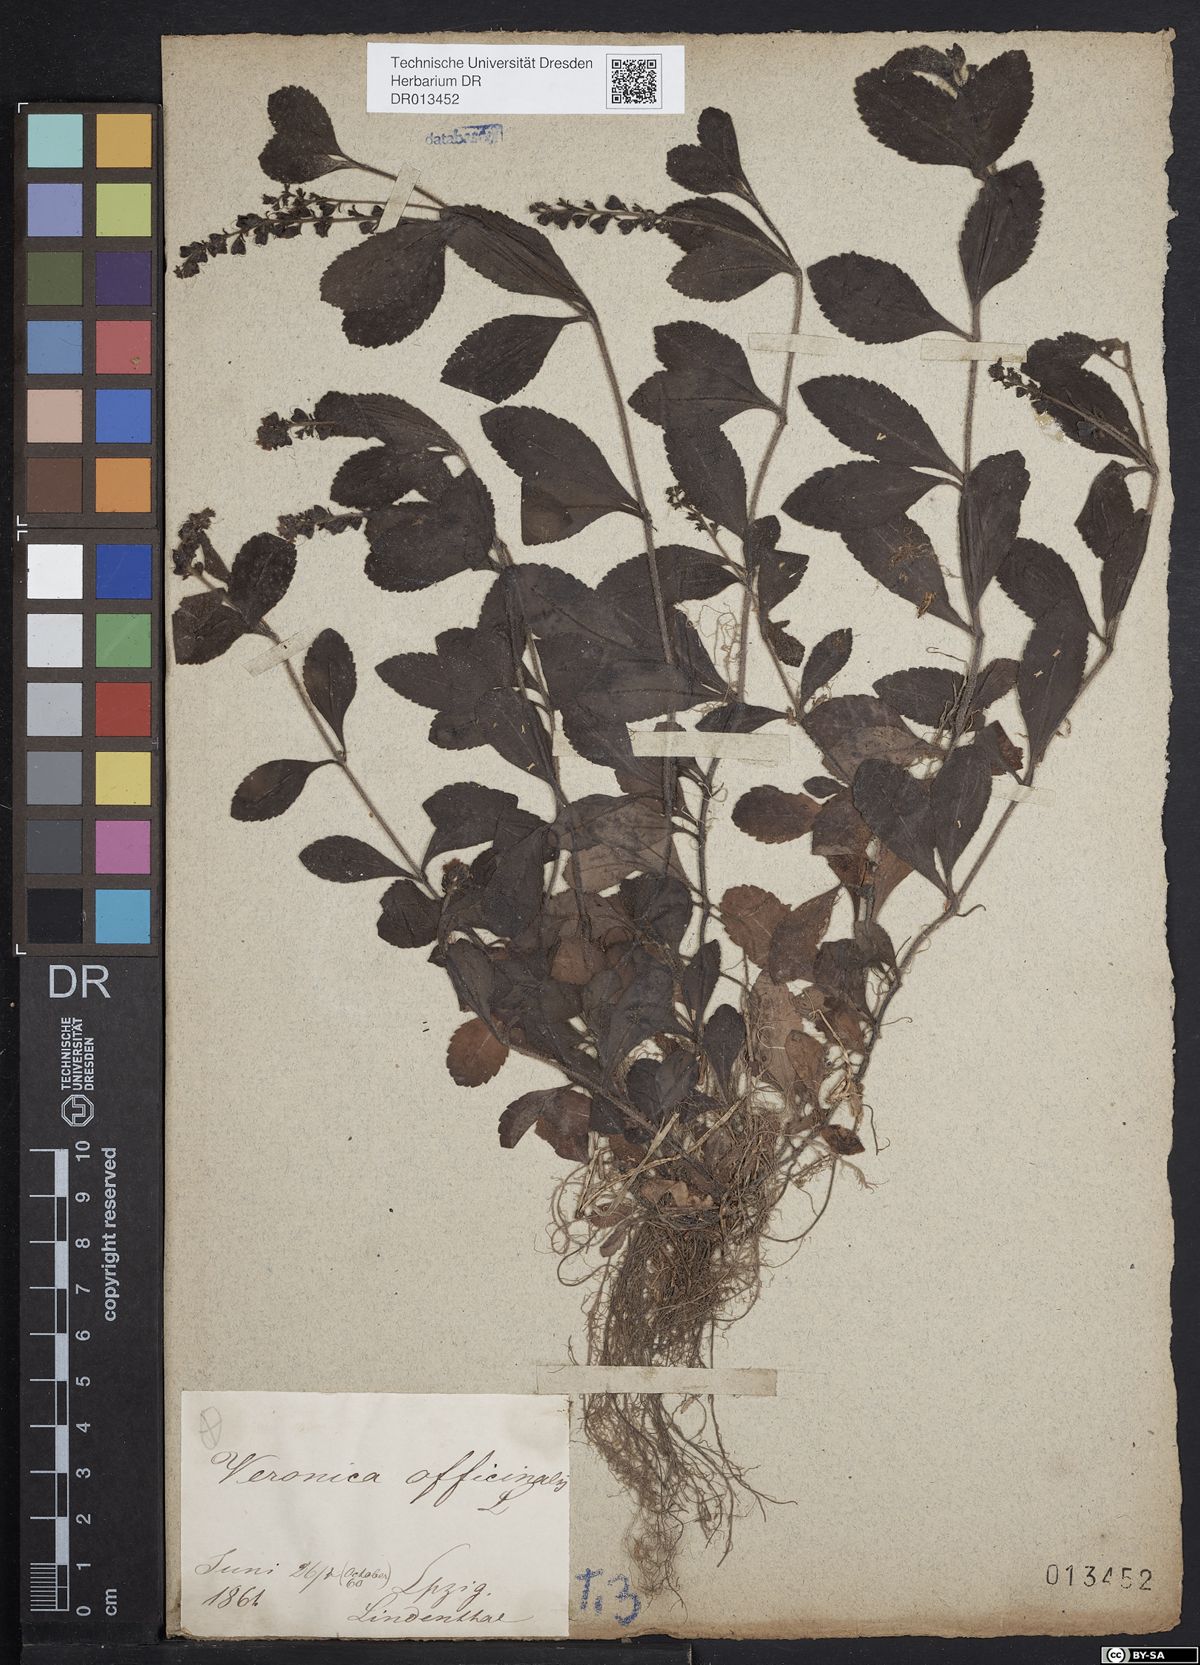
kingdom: Plantae
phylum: Tracheophyta
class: Magnoliopsida
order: Lamiales
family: Plantaginaceae
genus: Veronica
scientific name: Veronica officinalis
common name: Common speedwell
